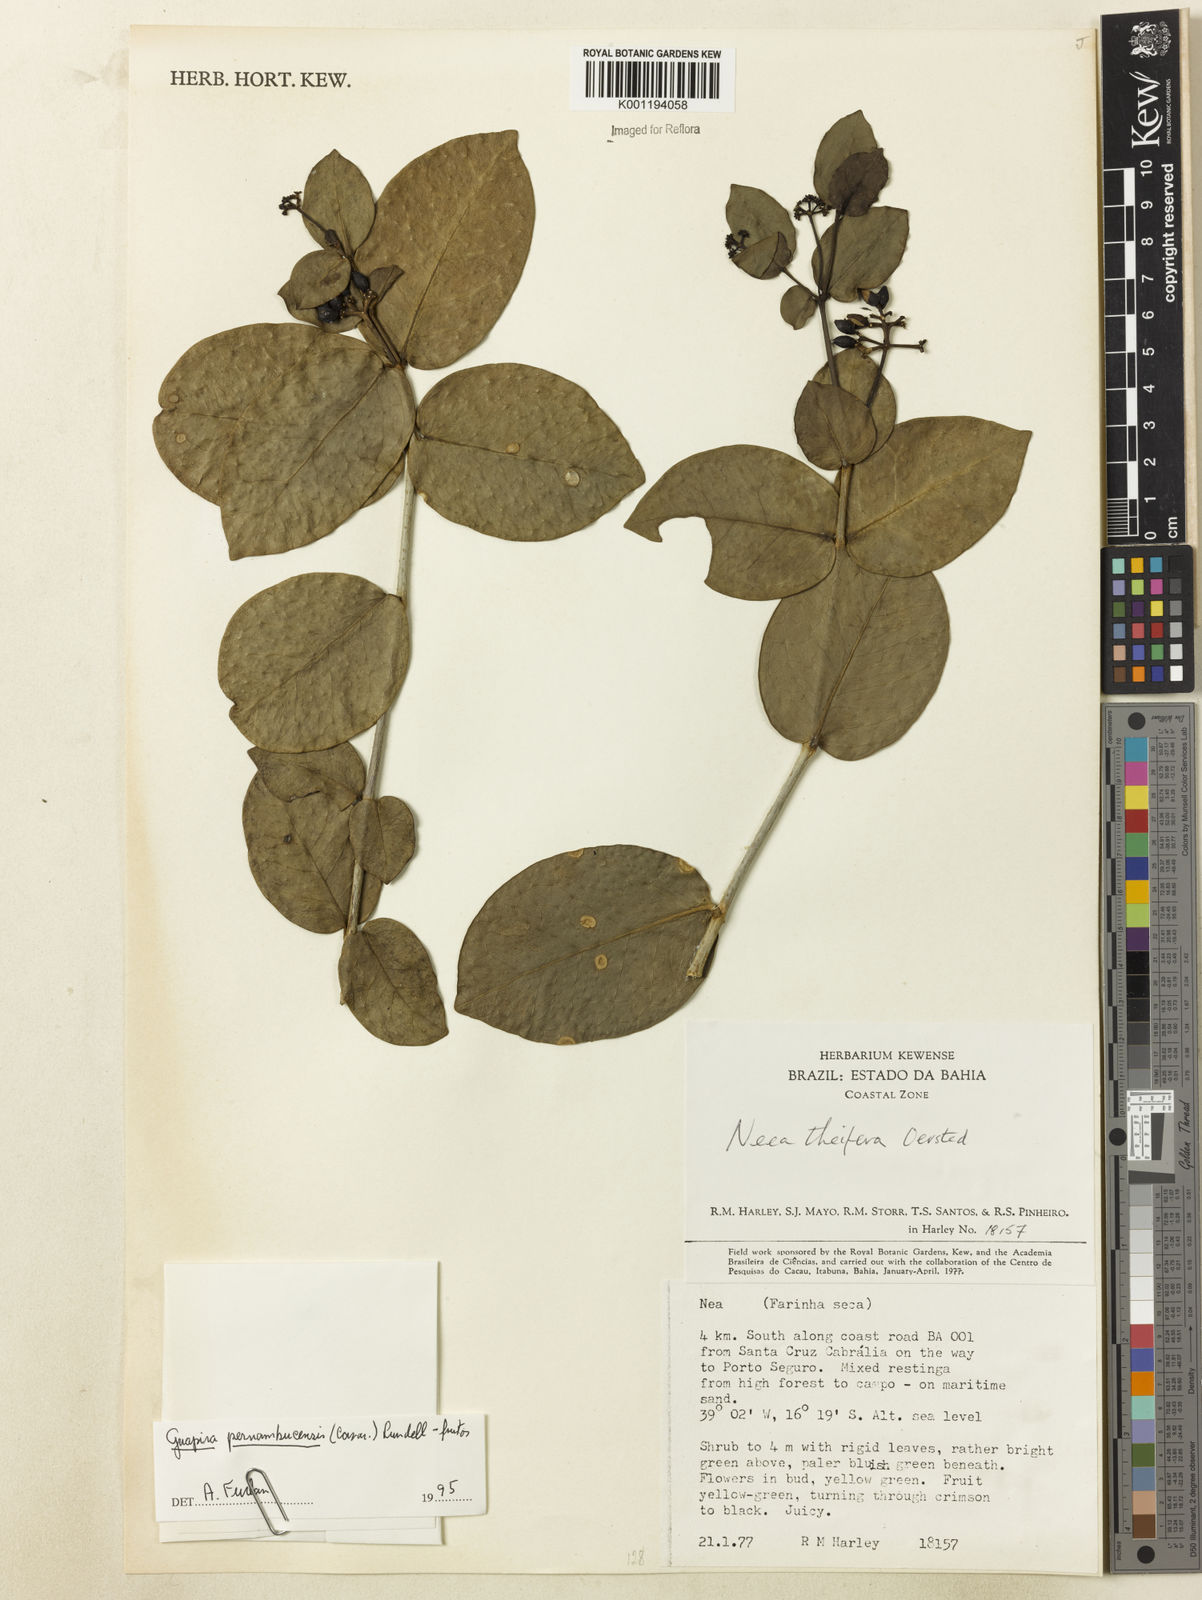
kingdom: Plantae
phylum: Tracheophyta
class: Magnoliopsida
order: Caryophyllales
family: Nyctaginaceae
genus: Guapira
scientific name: Guapira pernambucensis
